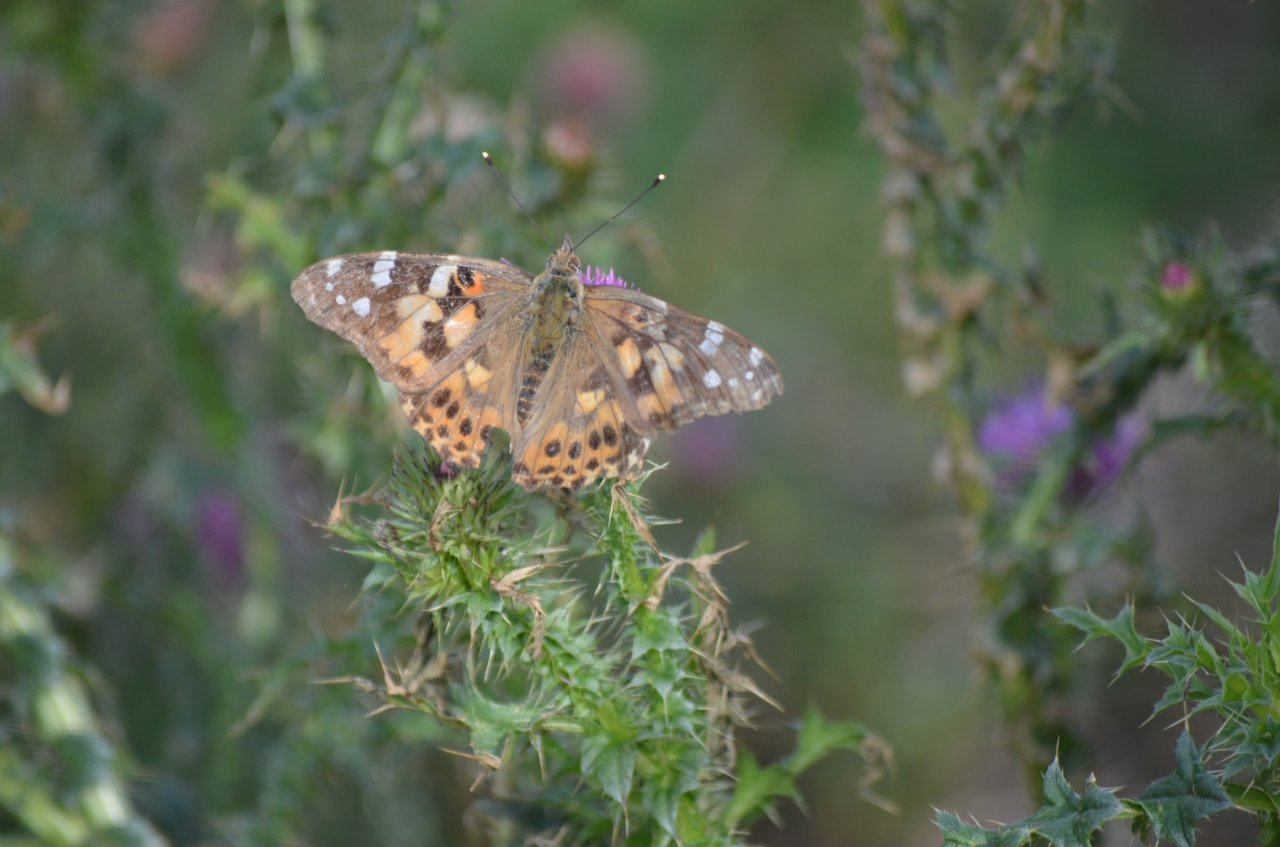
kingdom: Animalia
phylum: Arthropoda
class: Insecta
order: Lepidoptera
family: Nymphalidae
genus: Vanessa
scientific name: Vanessa cardui
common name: Painted Lady
